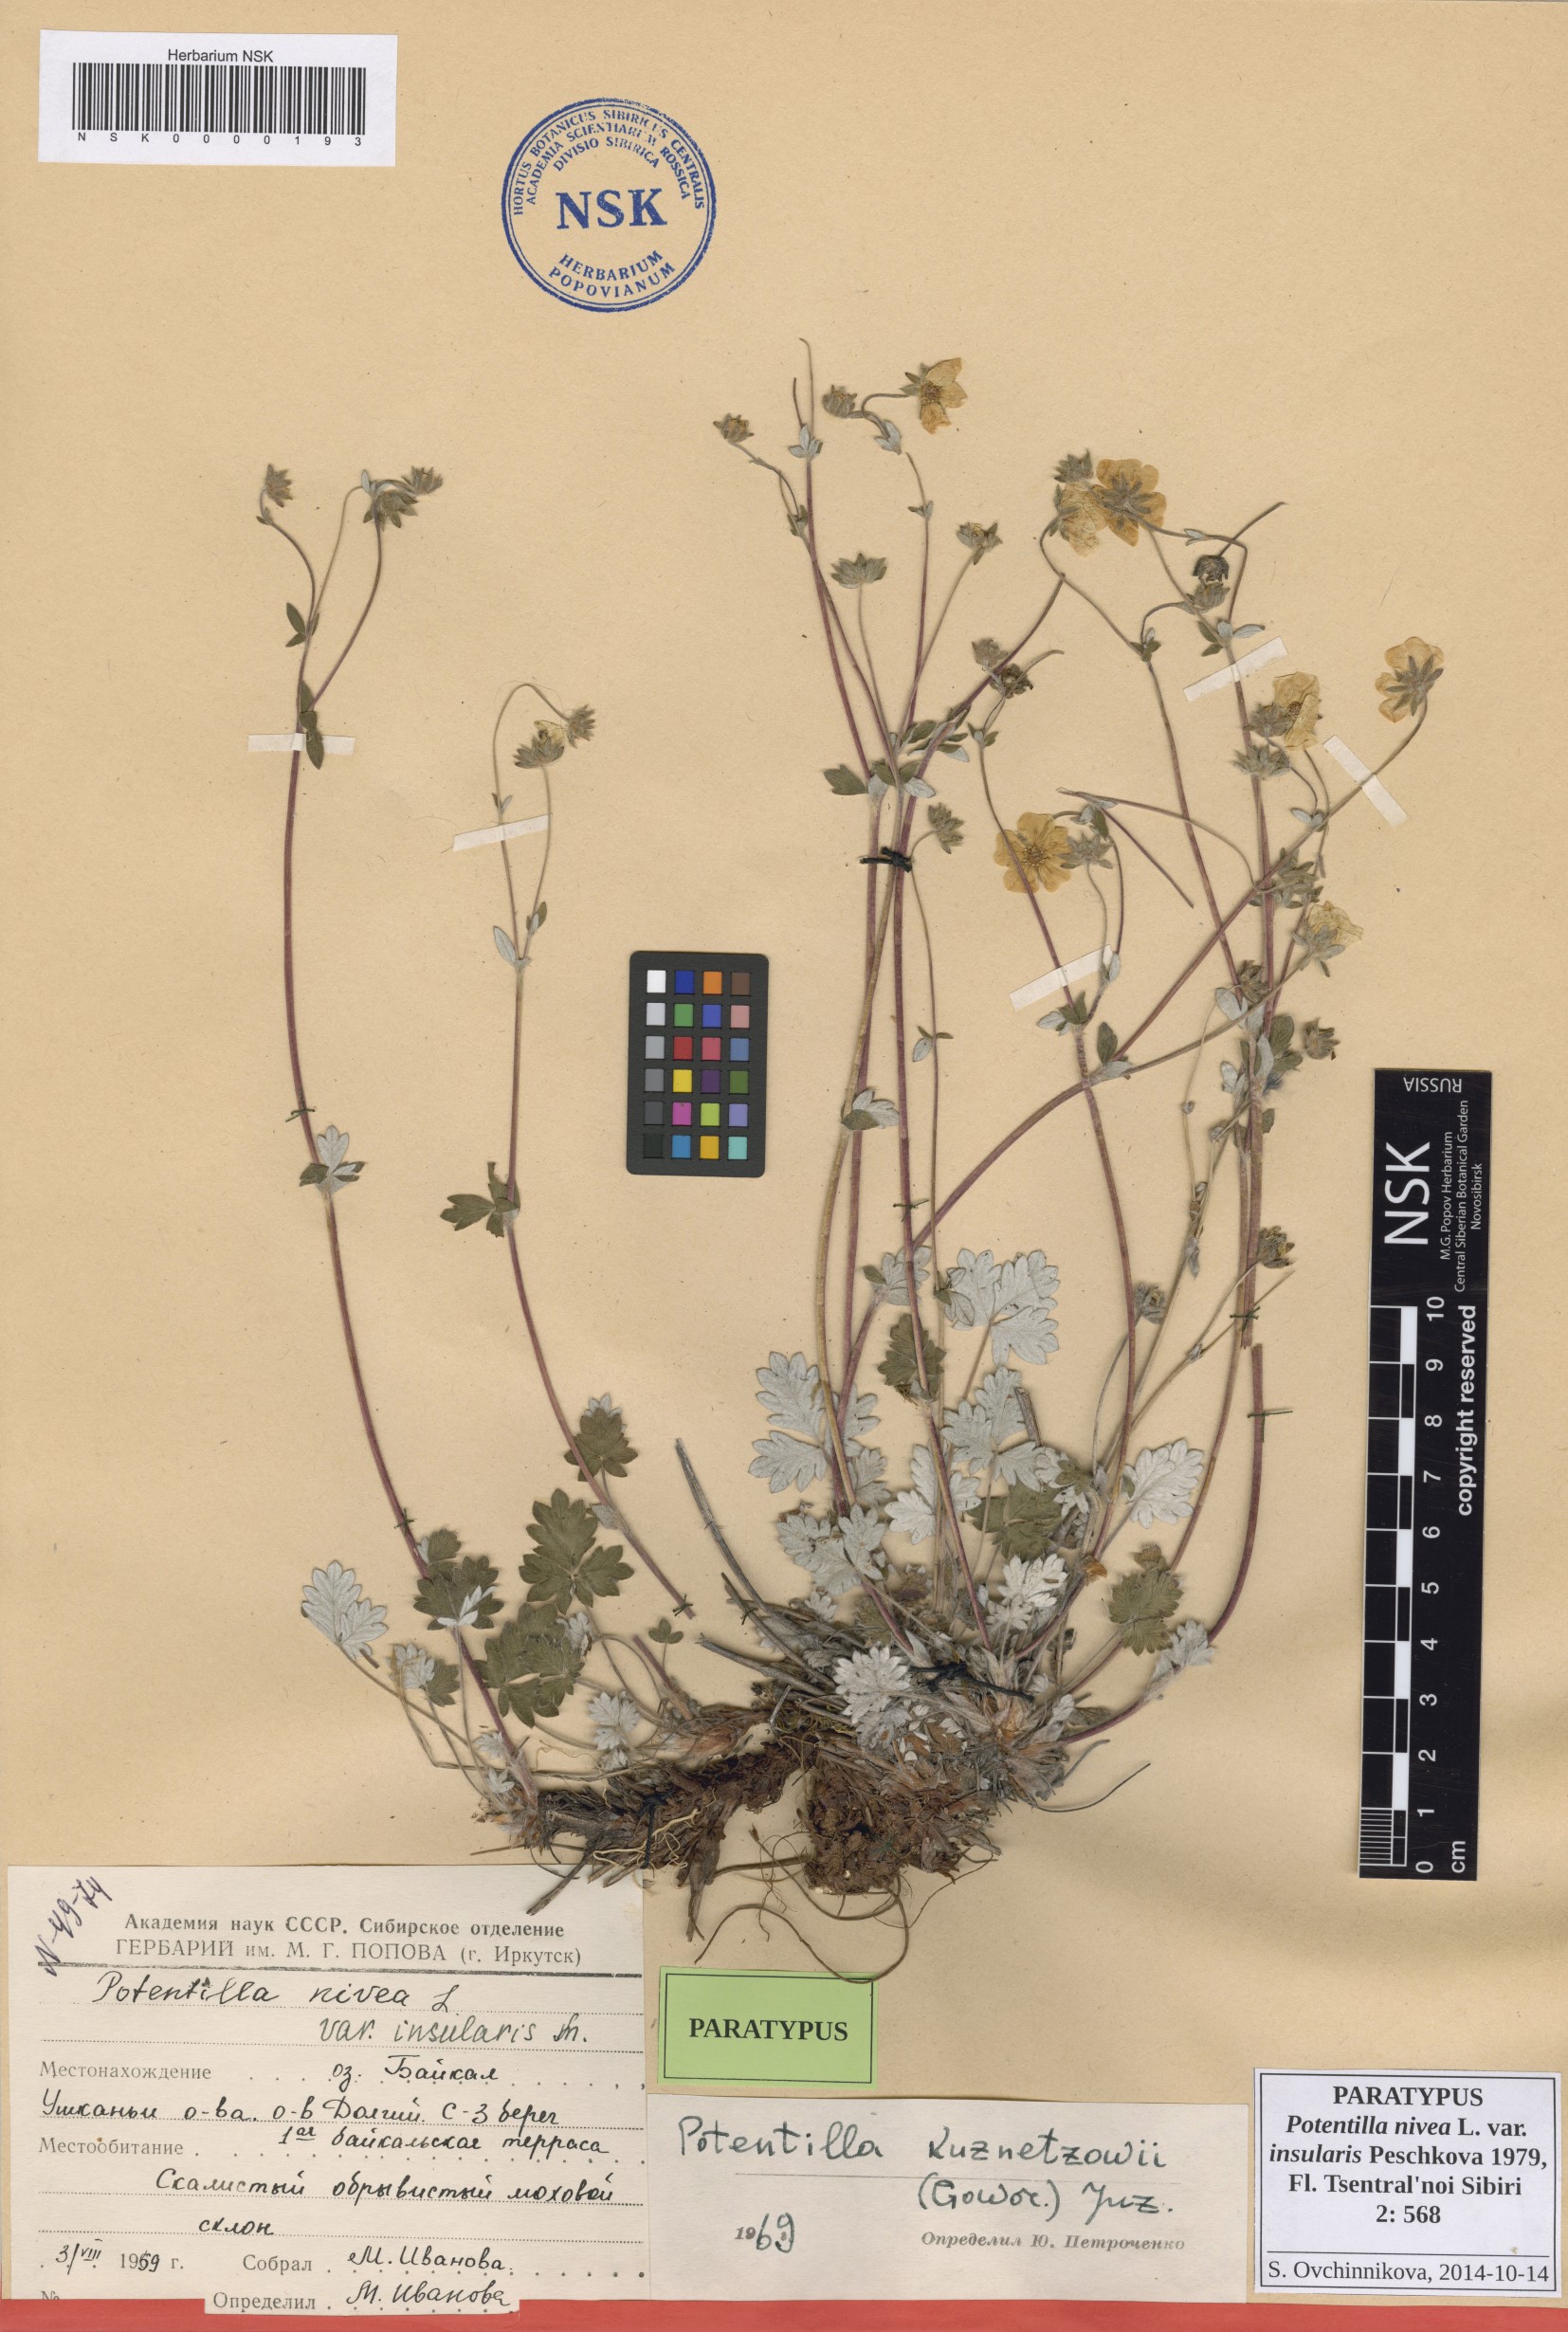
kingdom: Plantae
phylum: Tracheophyta
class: Magnoliopsida
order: Rosales
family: Rosaceae
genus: Potentilla
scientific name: Potentilla nivea
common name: Snow cinquefoil
